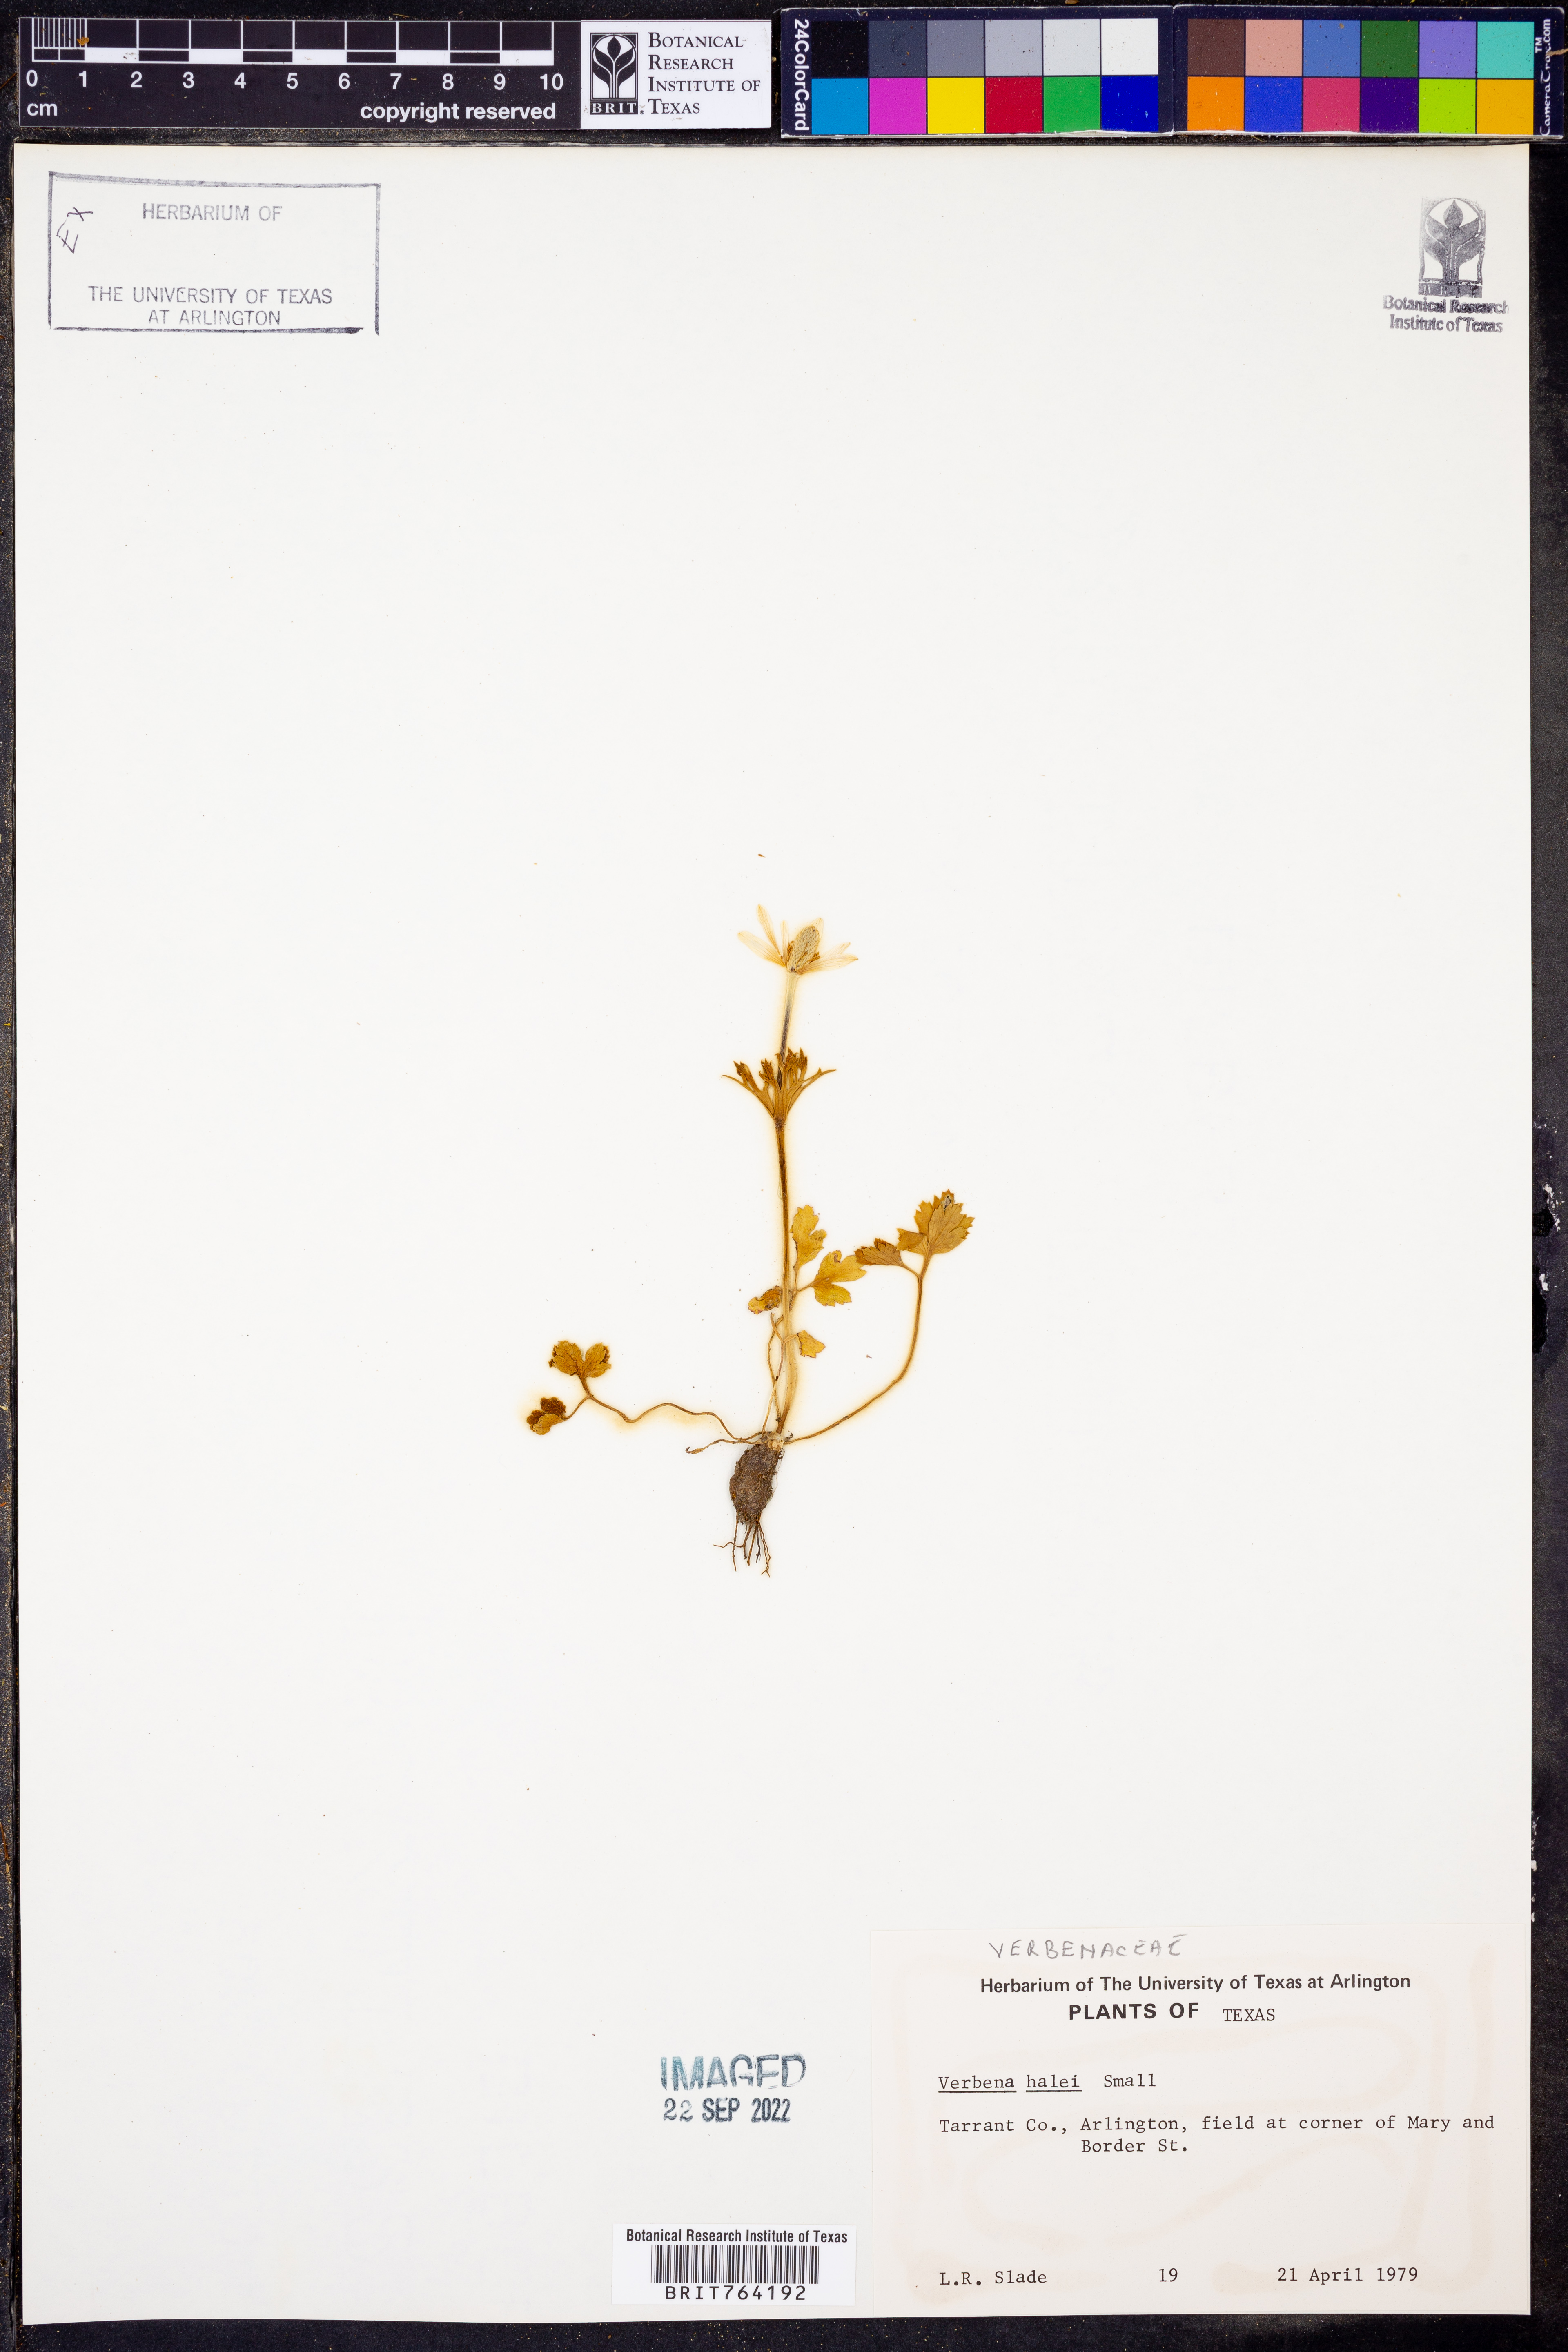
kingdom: Plantae
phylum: Tracheophyta
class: Magnoliopsida
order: Lamiales
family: Verbenaceae
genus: Verbena
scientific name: Verbena halei
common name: Texas vervain
